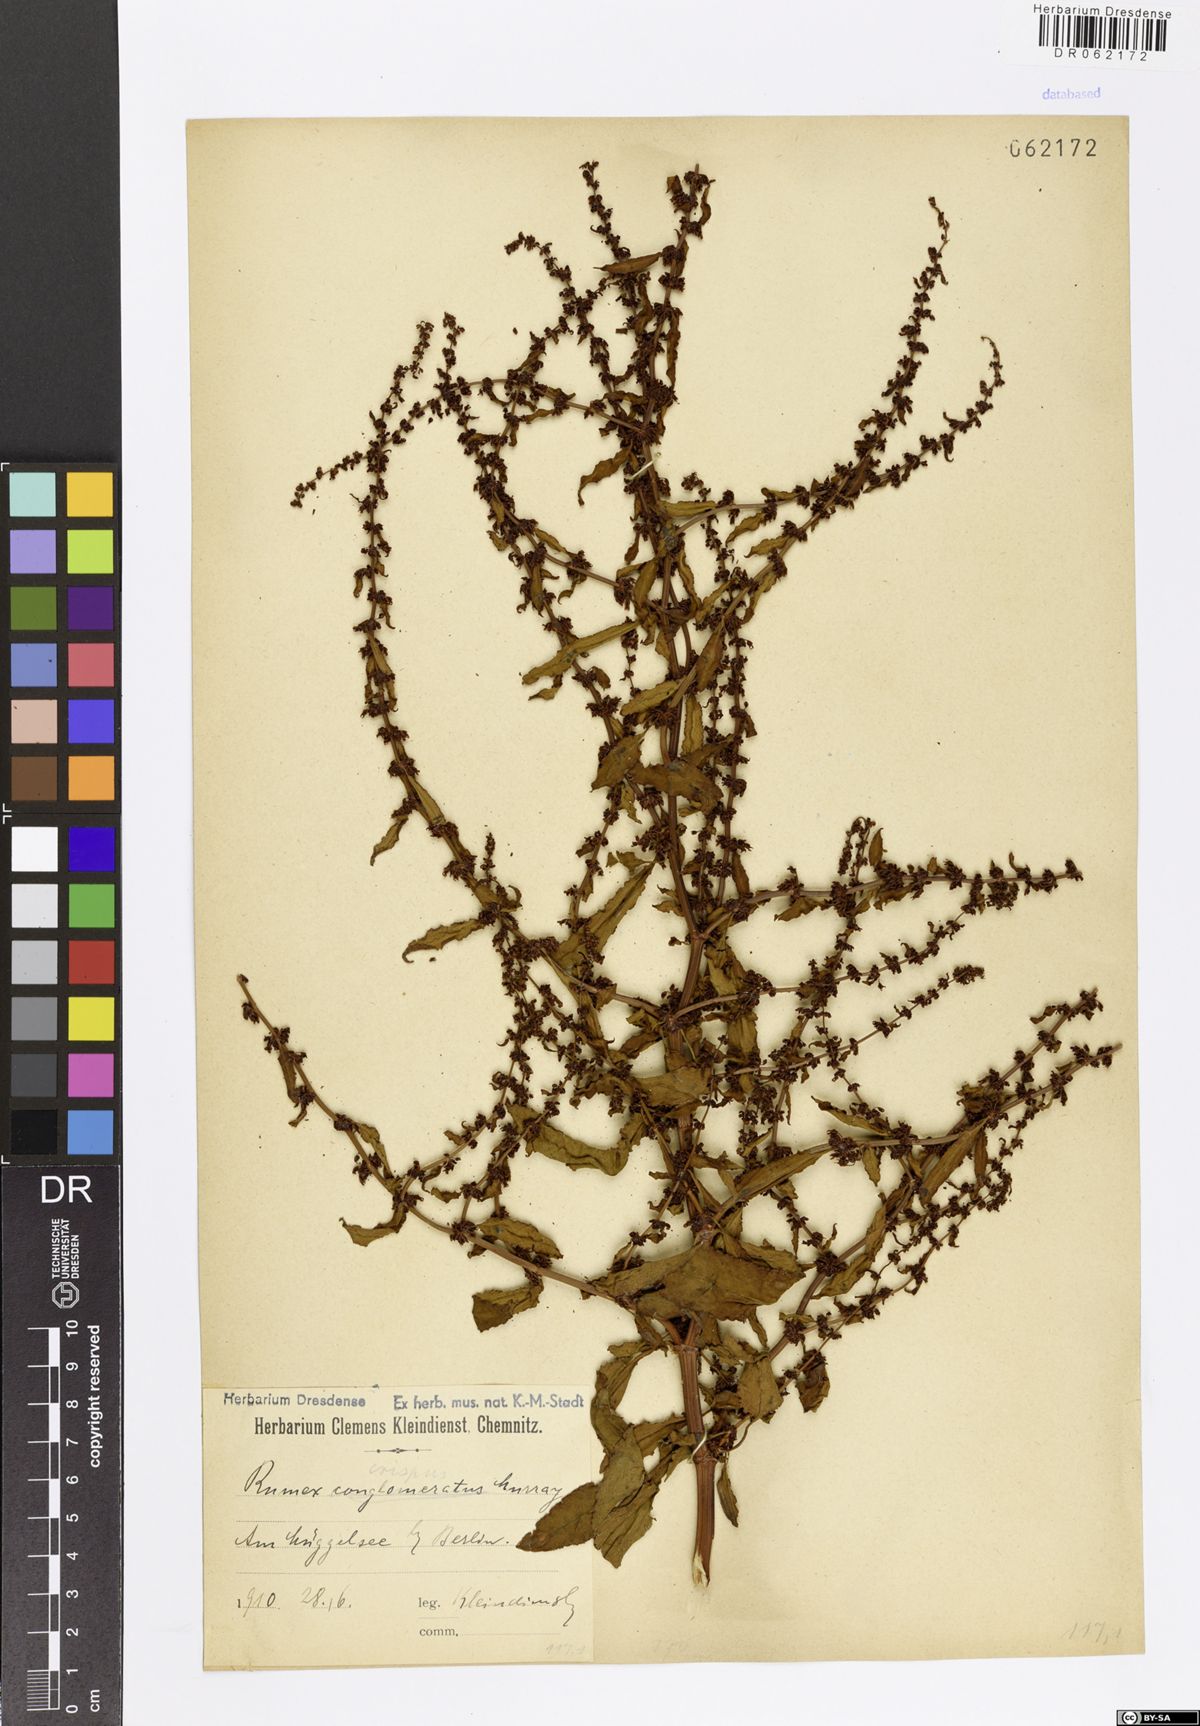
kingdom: Plantae
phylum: Tracheophyta
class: Magnoliopsida
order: Caryophyllales
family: Polygonaceae
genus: Rumex
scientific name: Rumex crispus
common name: Curled dock
